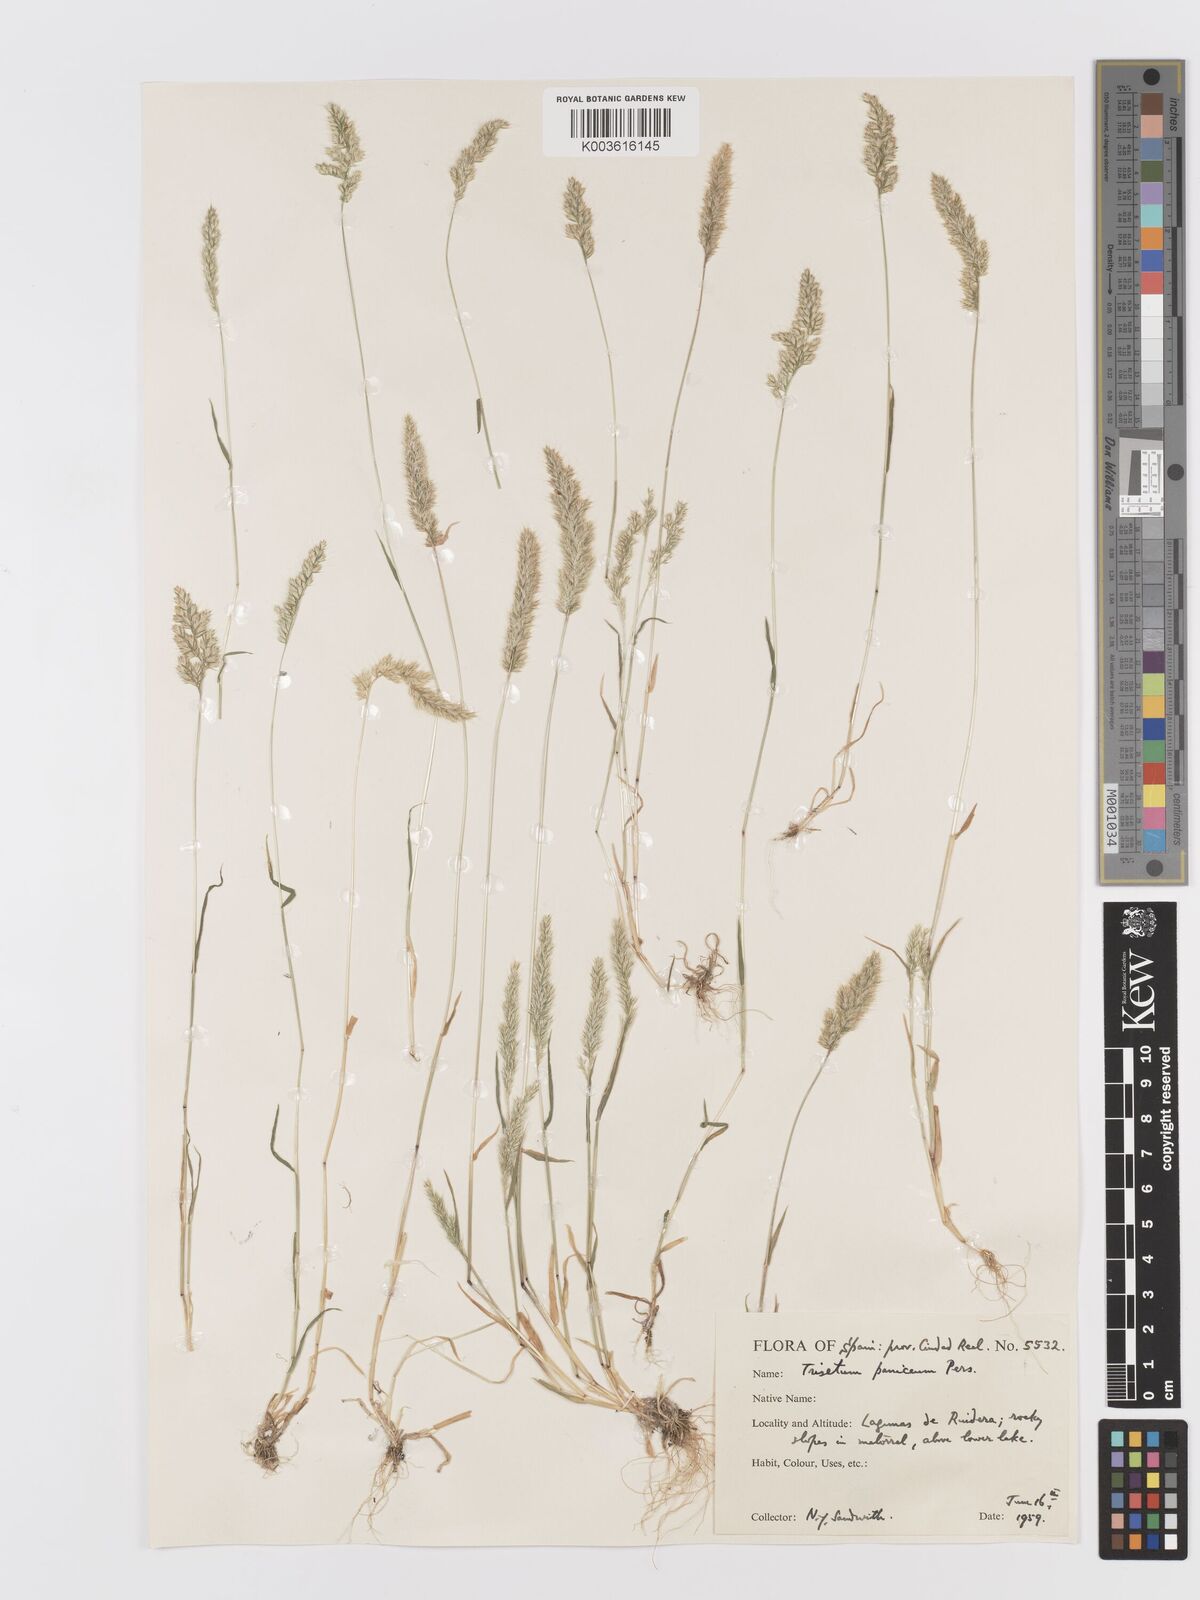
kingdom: Plantae
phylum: Tracheophyta
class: Liliopsida
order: Poales
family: Poaceae
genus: Trisetaria
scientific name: Trisetaria panicea
